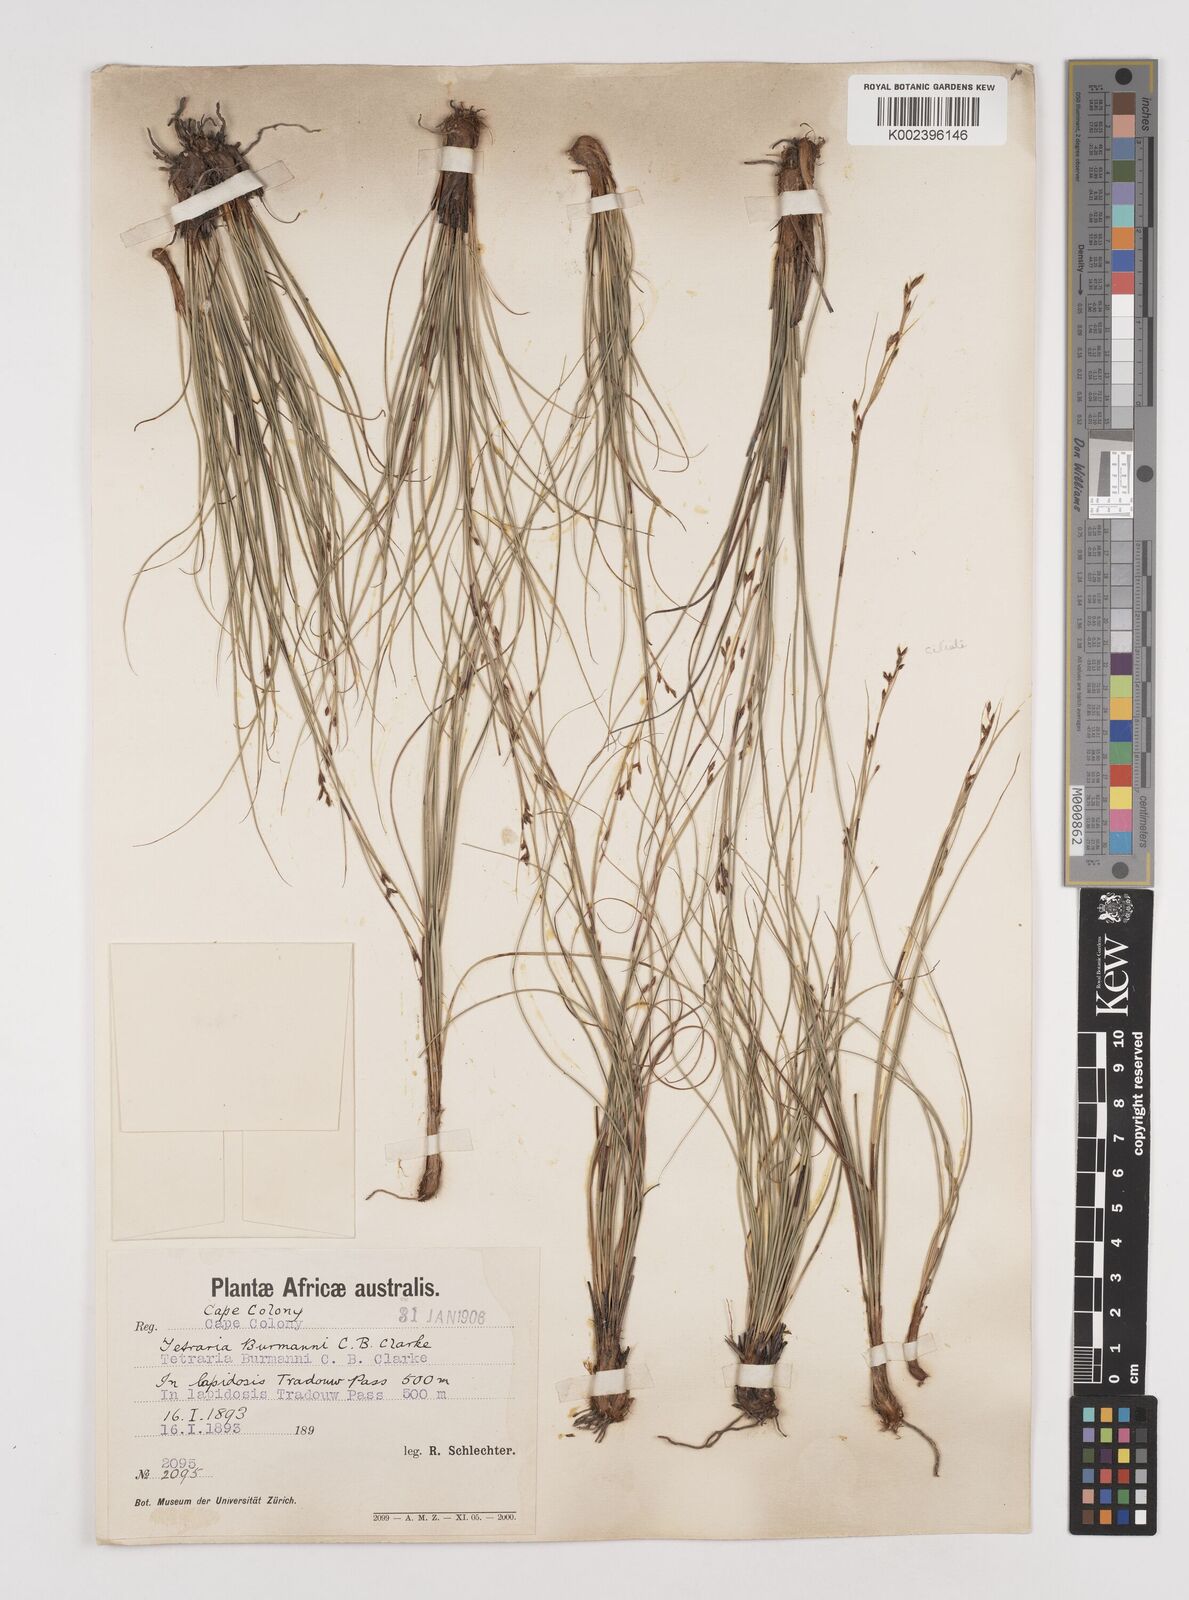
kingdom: Plantae
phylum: Tracheophyta
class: Liliopsida
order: Poales
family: Cyperaceae
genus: Tetraria
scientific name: Tetraria burmanni
